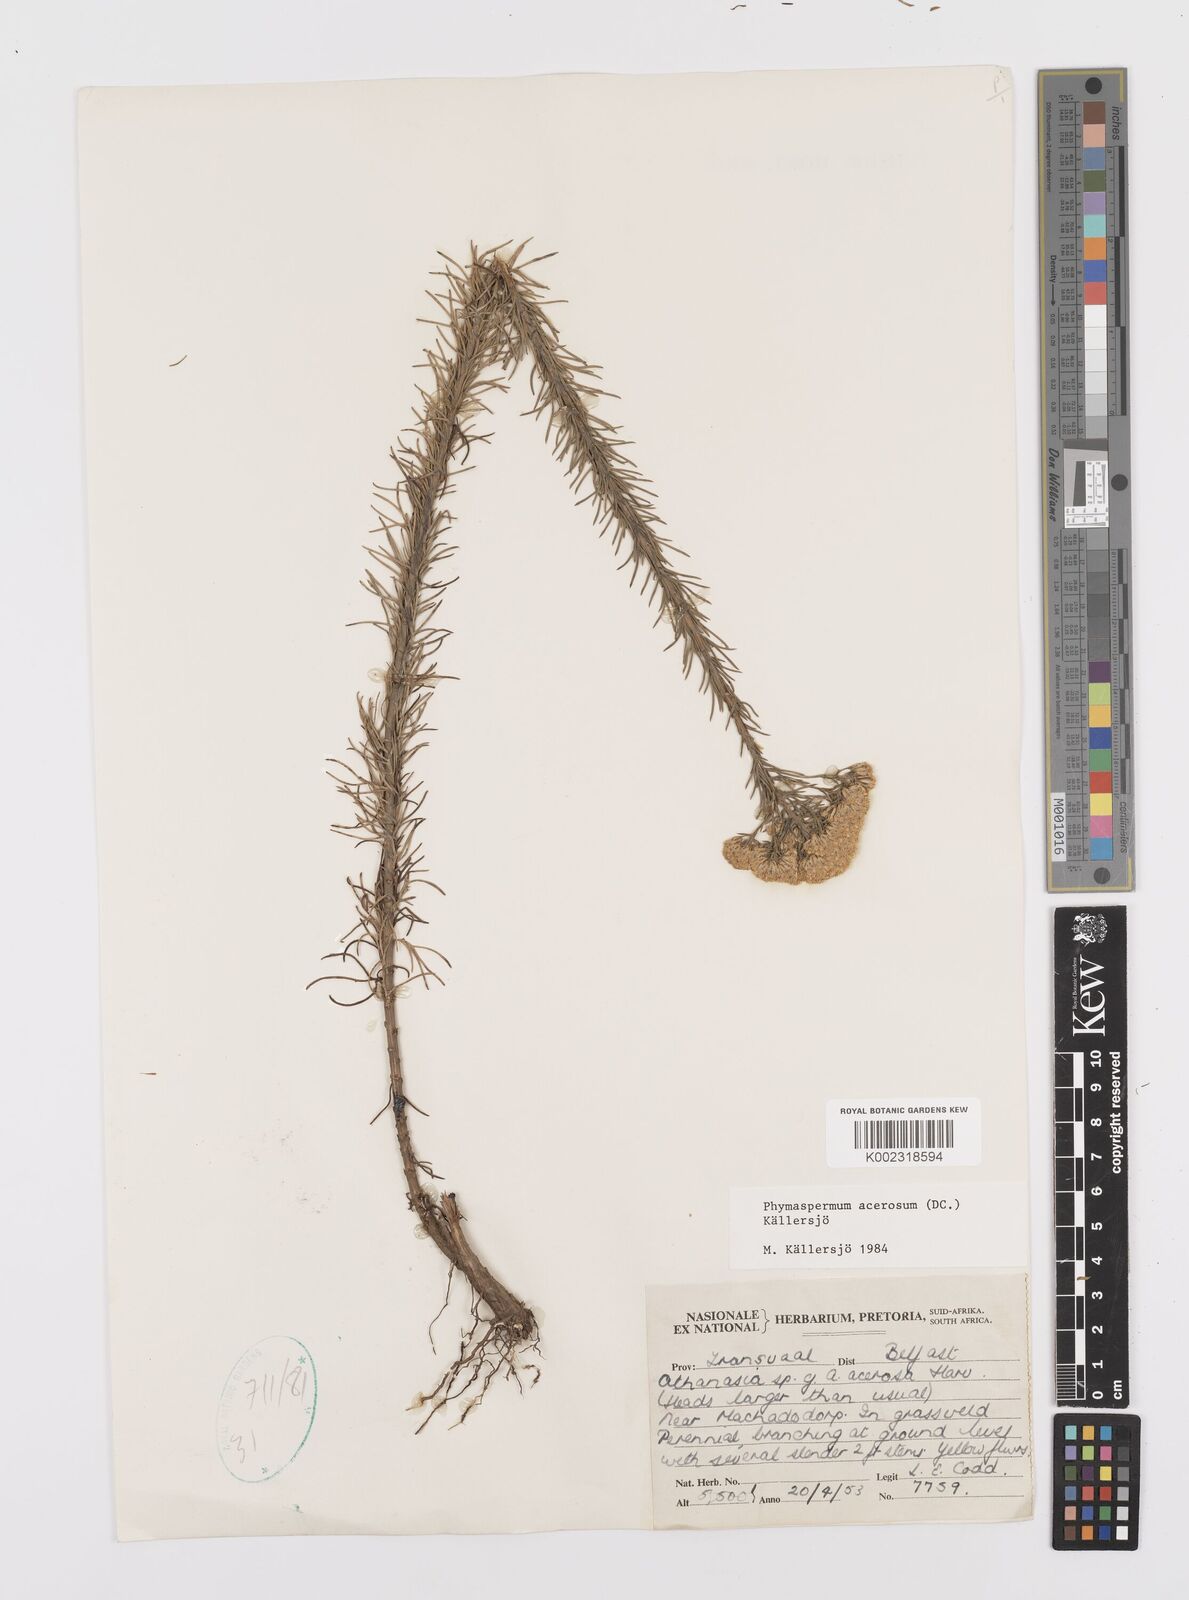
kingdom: Plantae
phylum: Tracheophyta
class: Magnoliopsida
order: Asterales
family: Asteraceae
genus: Phymaspermum
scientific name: Phymaspermum acerosum
